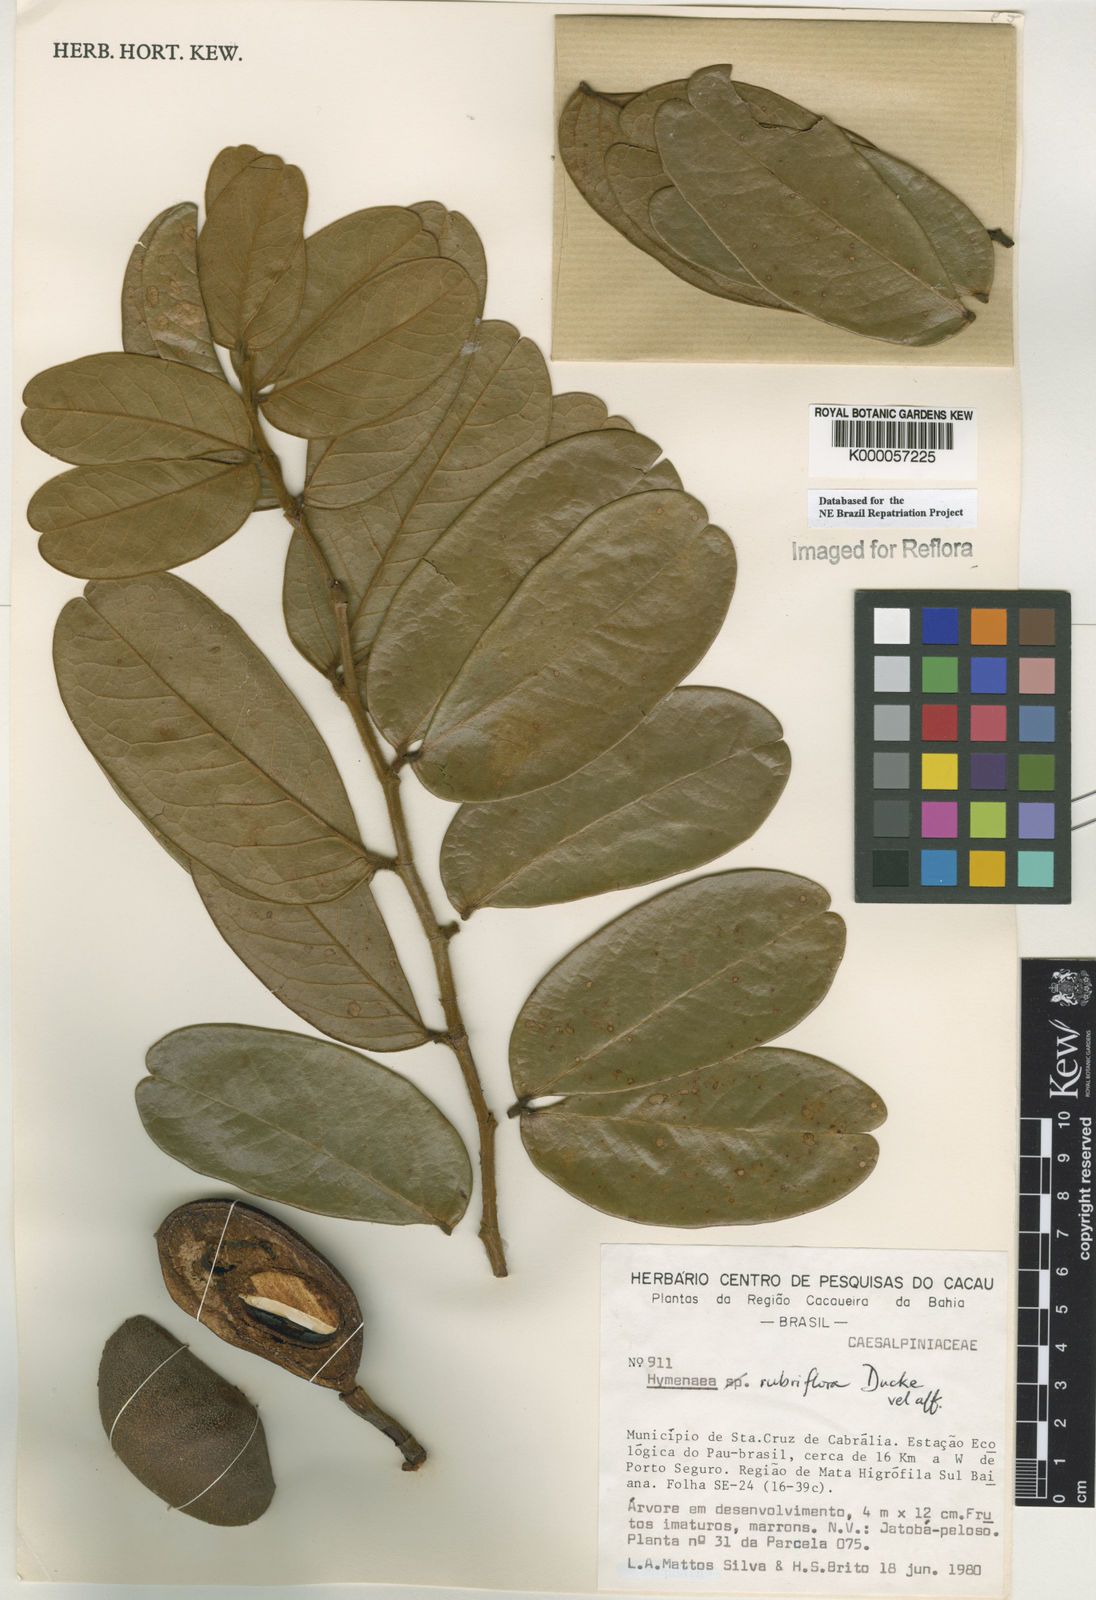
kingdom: Plantae
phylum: Tracheophyta
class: Magnoliopsida
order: Fabales
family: Fabaceae
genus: Hymenaea
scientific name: Hymenaea aurea
